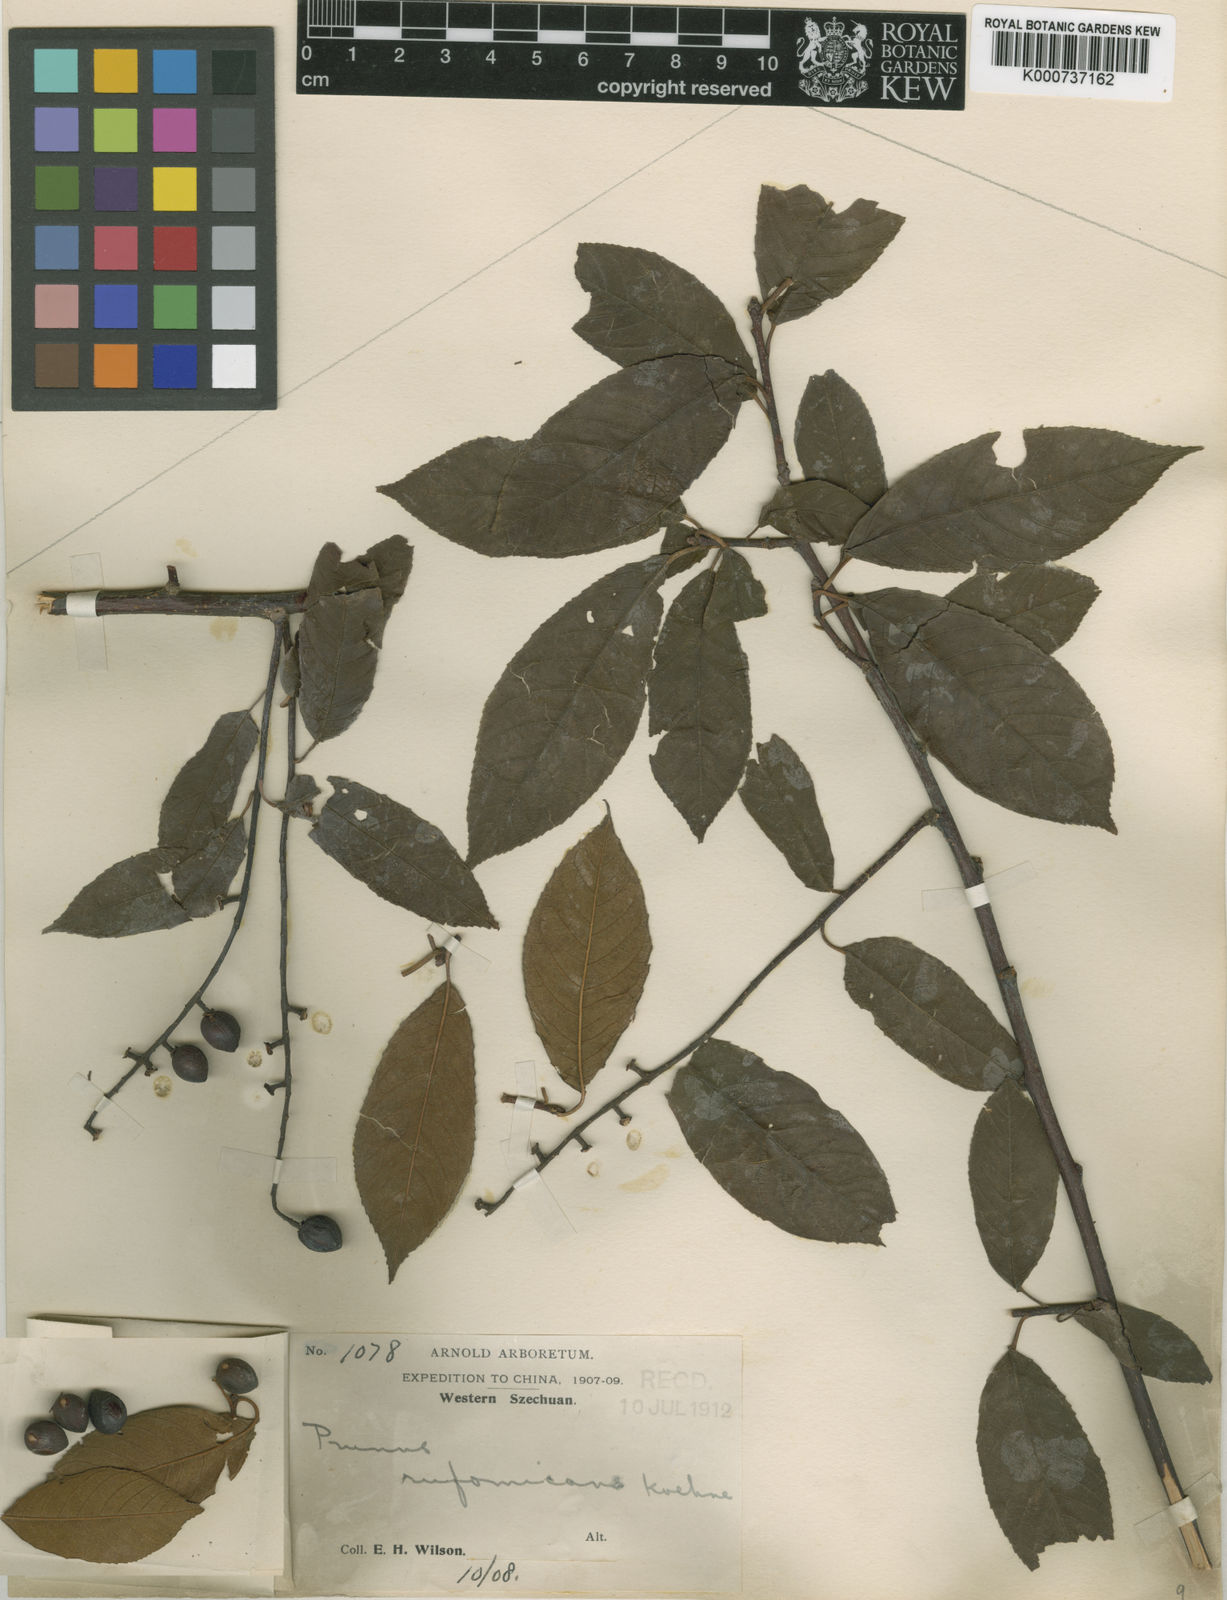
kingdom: Plantae
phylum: Tracheophyta
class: Magnoliopsida
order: Rosales
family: Rosaceae
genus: Prunus
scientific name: Prunus wilsonii
